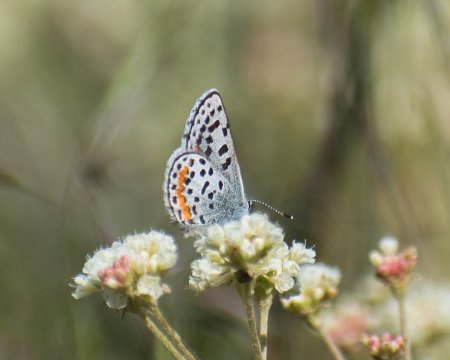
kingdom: Animalia
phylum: Arthropoda
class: Insecta
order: Lepidoptera
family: Lycaenidae
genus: Euphilotes
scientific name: Euphilotes
